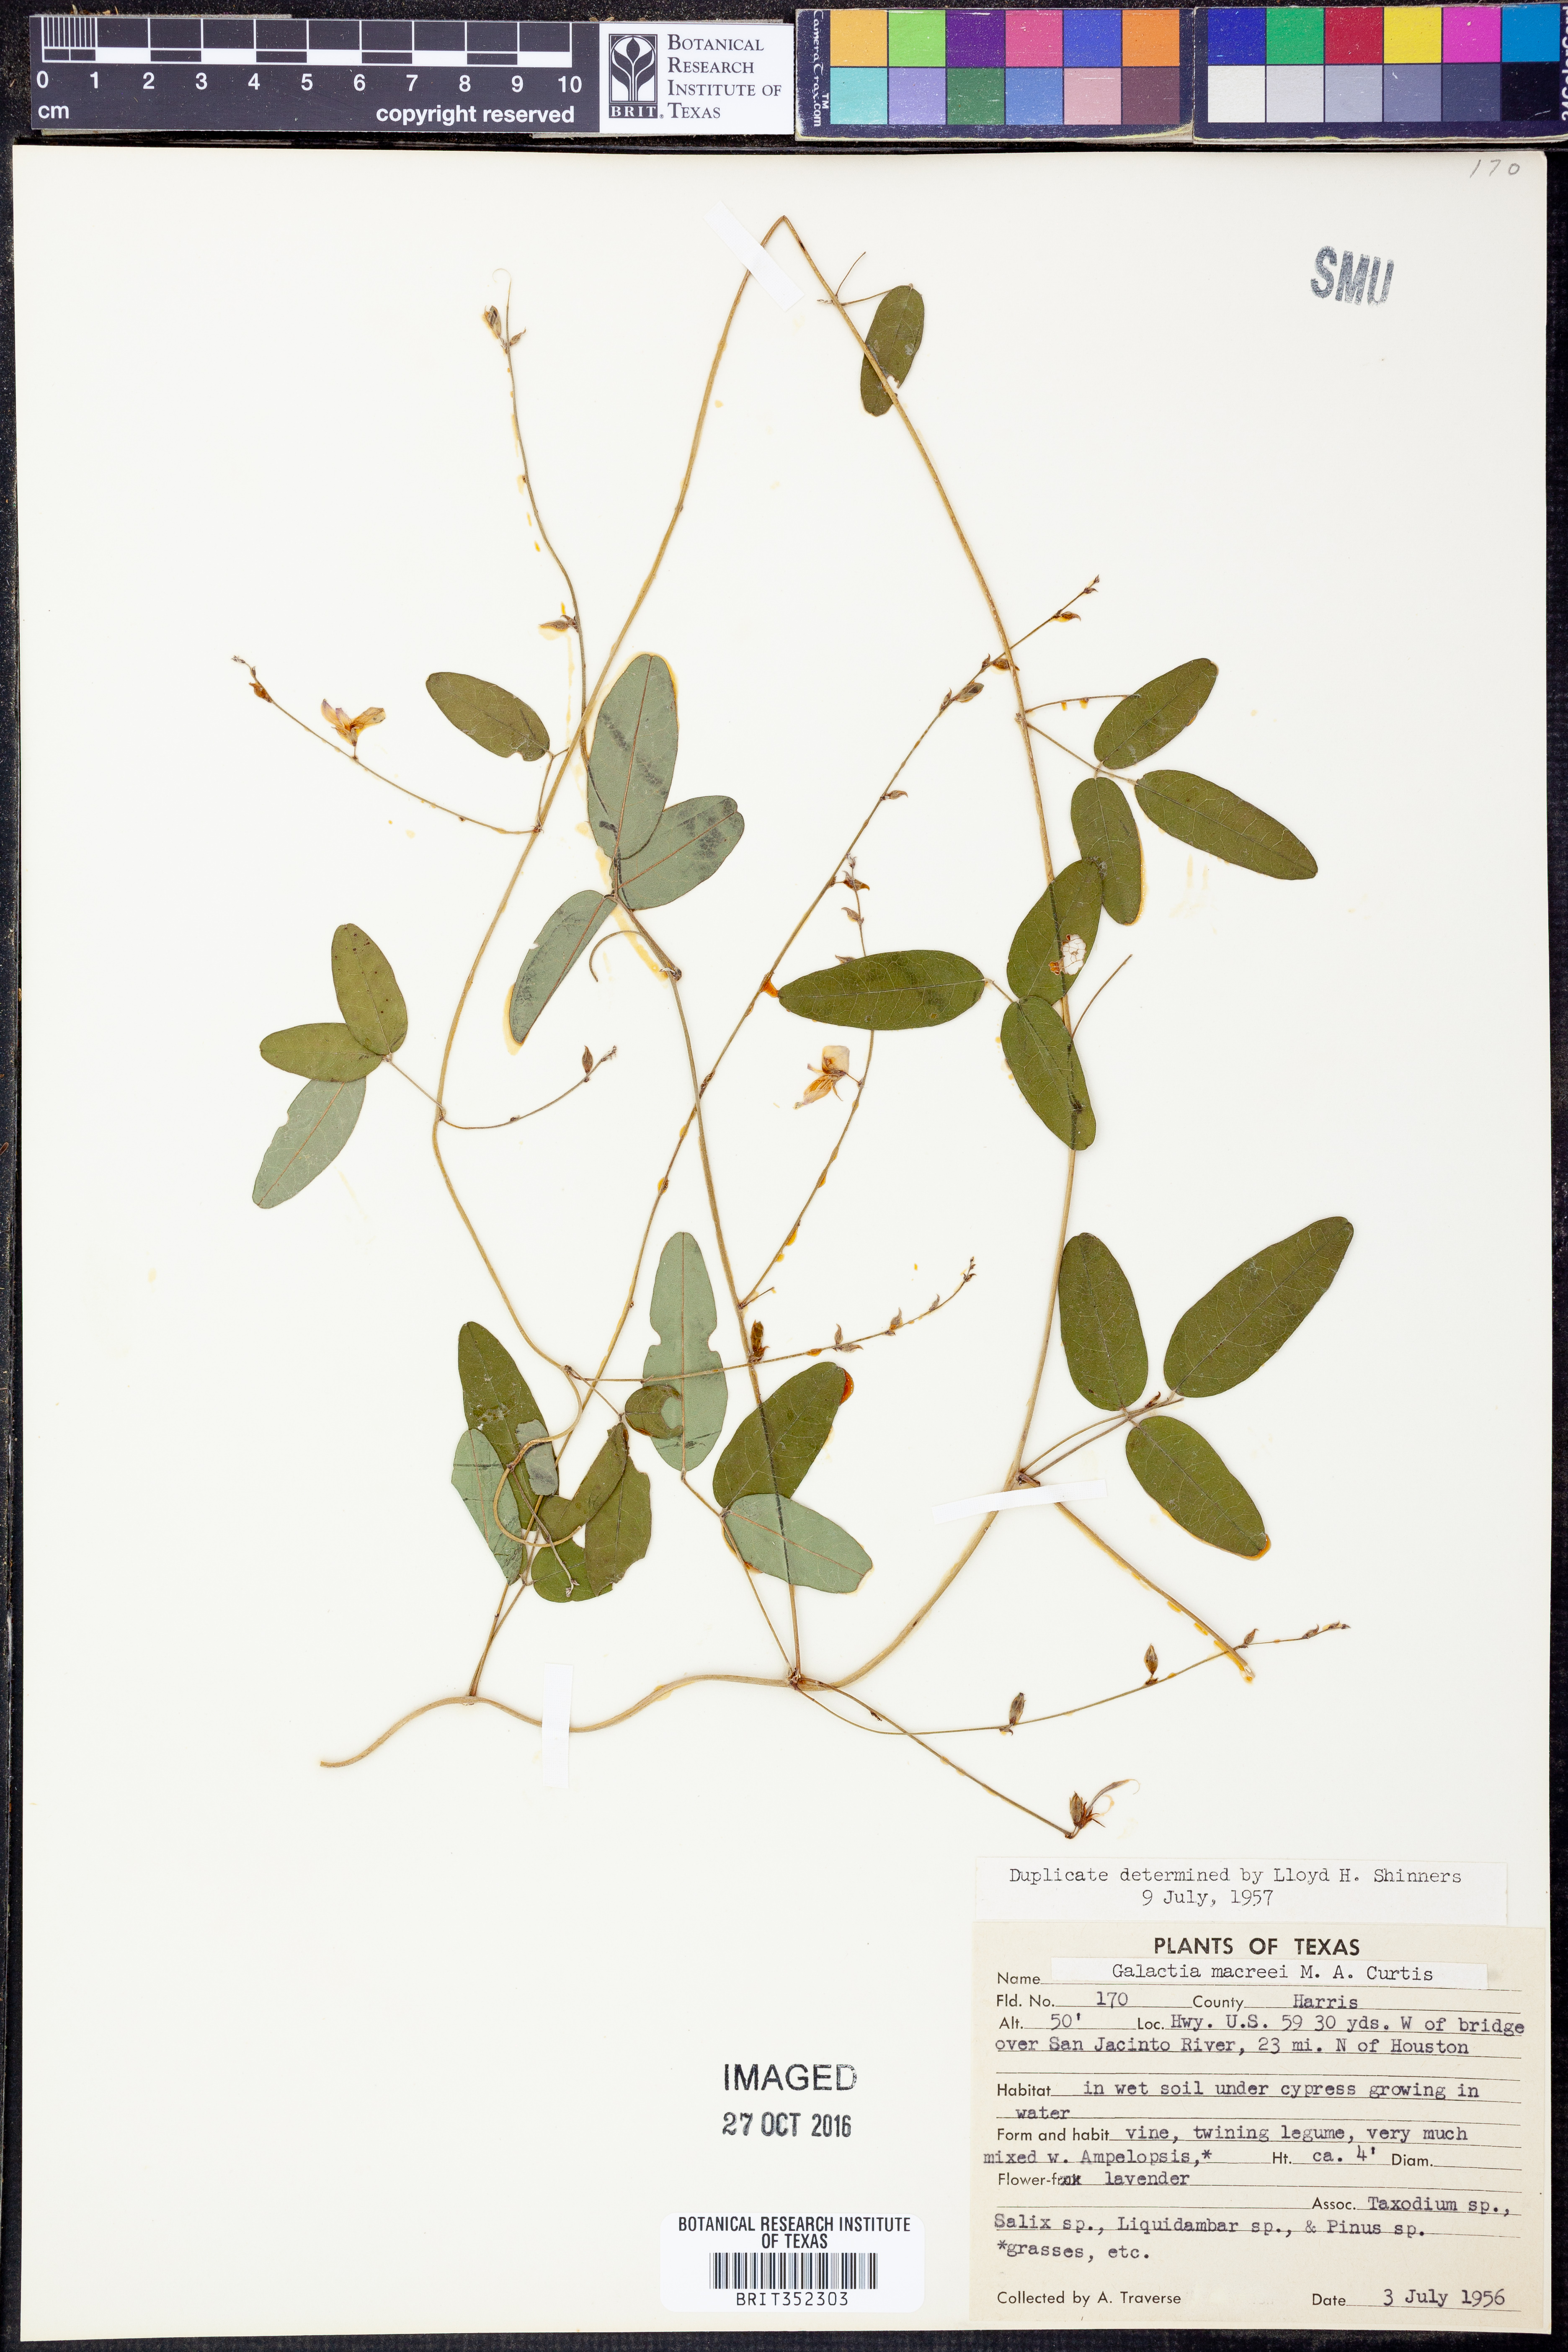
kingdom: Plantae
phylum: Tracheophyta
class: Magnoliopsida
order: Fabales
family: Fabaceae
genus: Galactia
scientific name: Galactia volubilis
